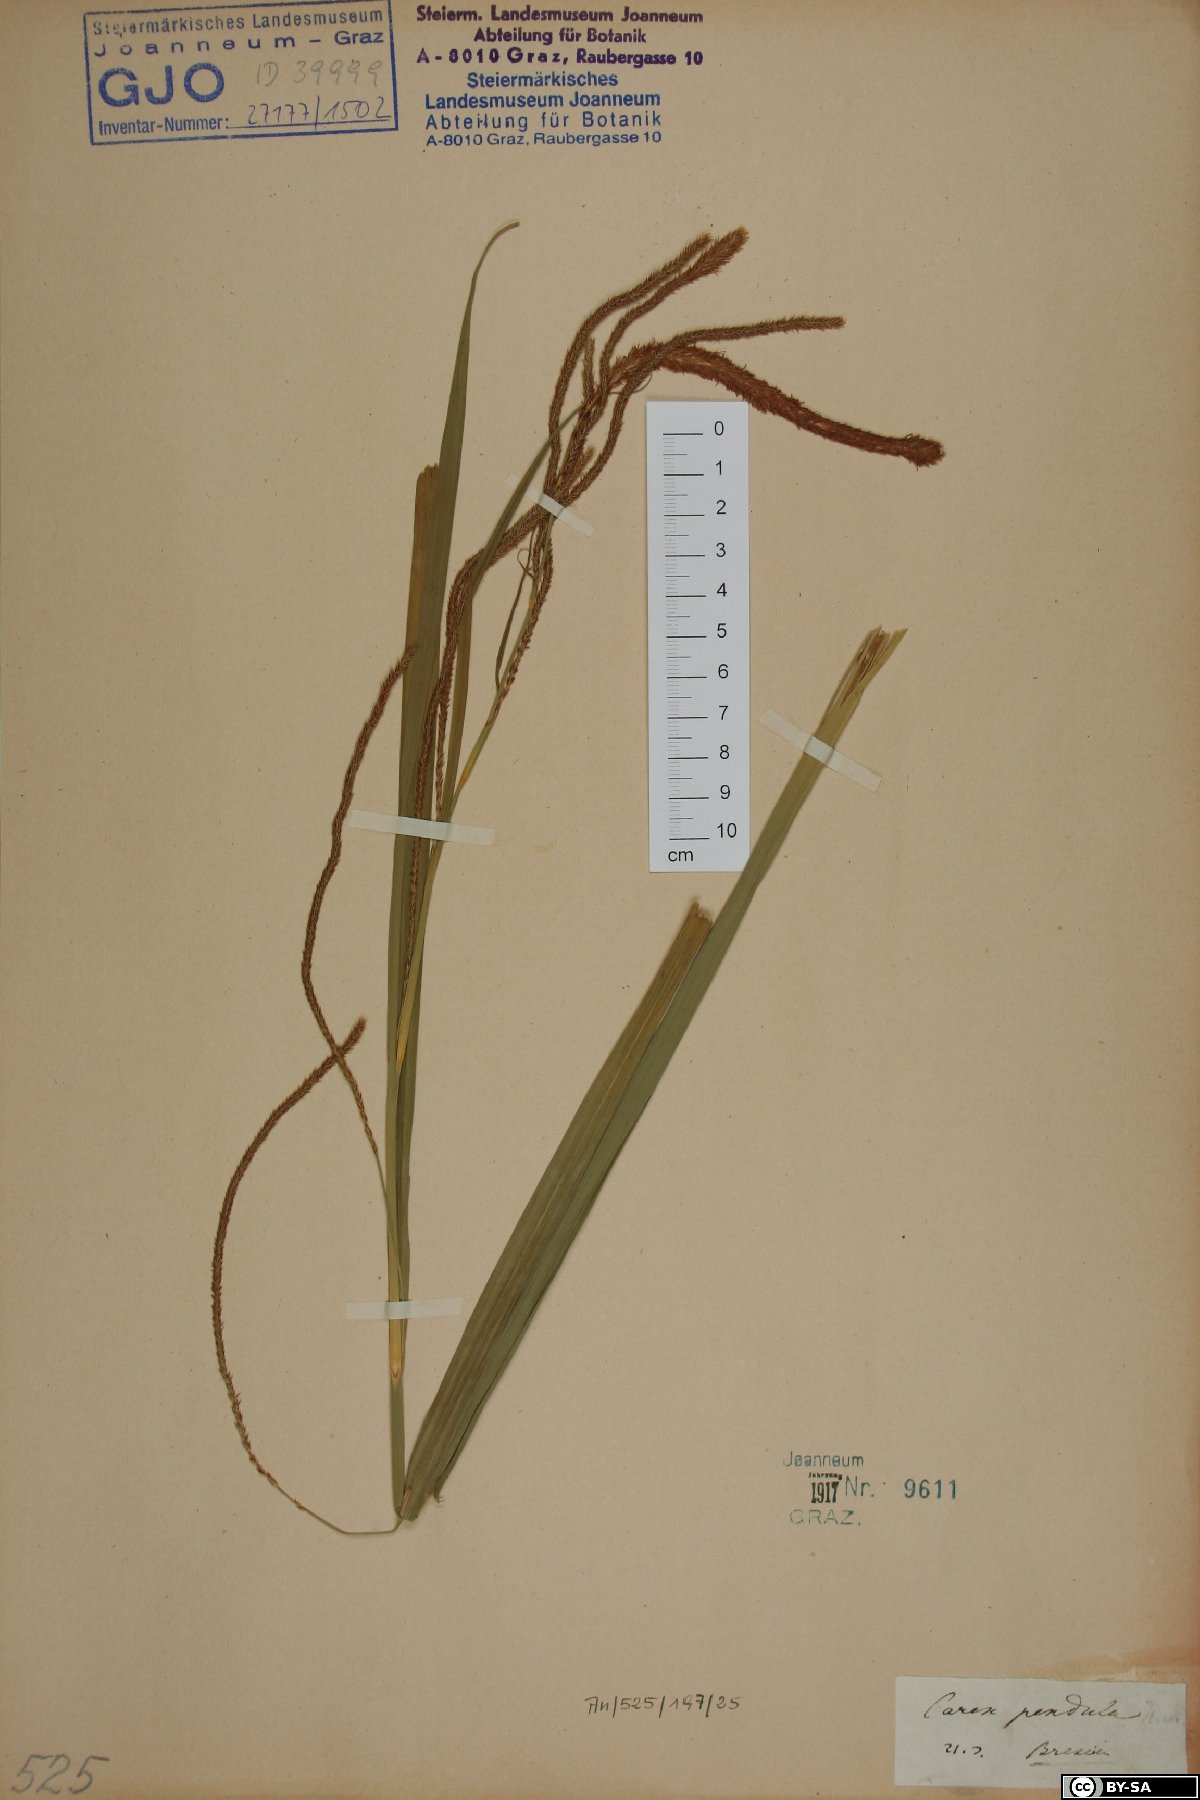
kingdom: Plantae
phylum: Tracheophyta
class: Liliopsida
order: Poales
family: Cyperaceae
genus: Carex
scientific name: Carex pendula
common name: Pendulous sedge
